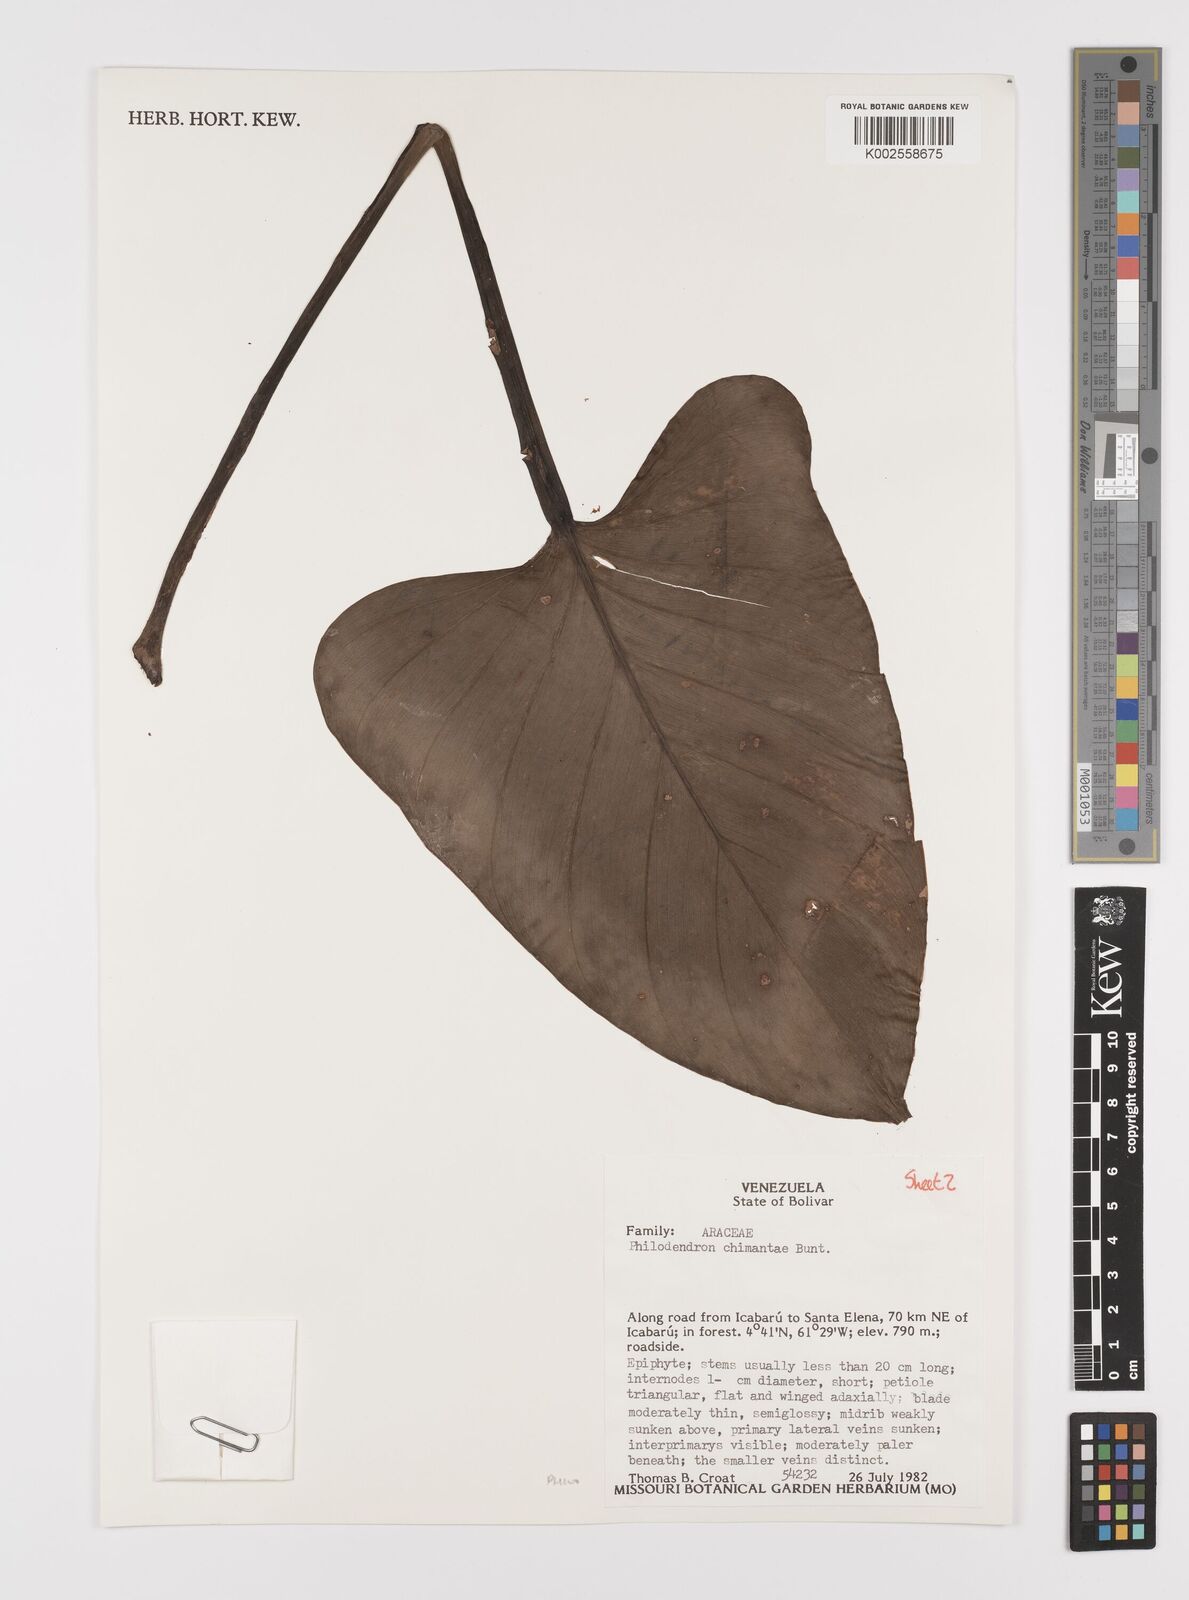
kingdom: Plantae
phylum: Tracheophyta
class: Liliopsida
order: Alismatales
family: Araceae
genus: Philodendron
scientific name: Philodendron chimantae
